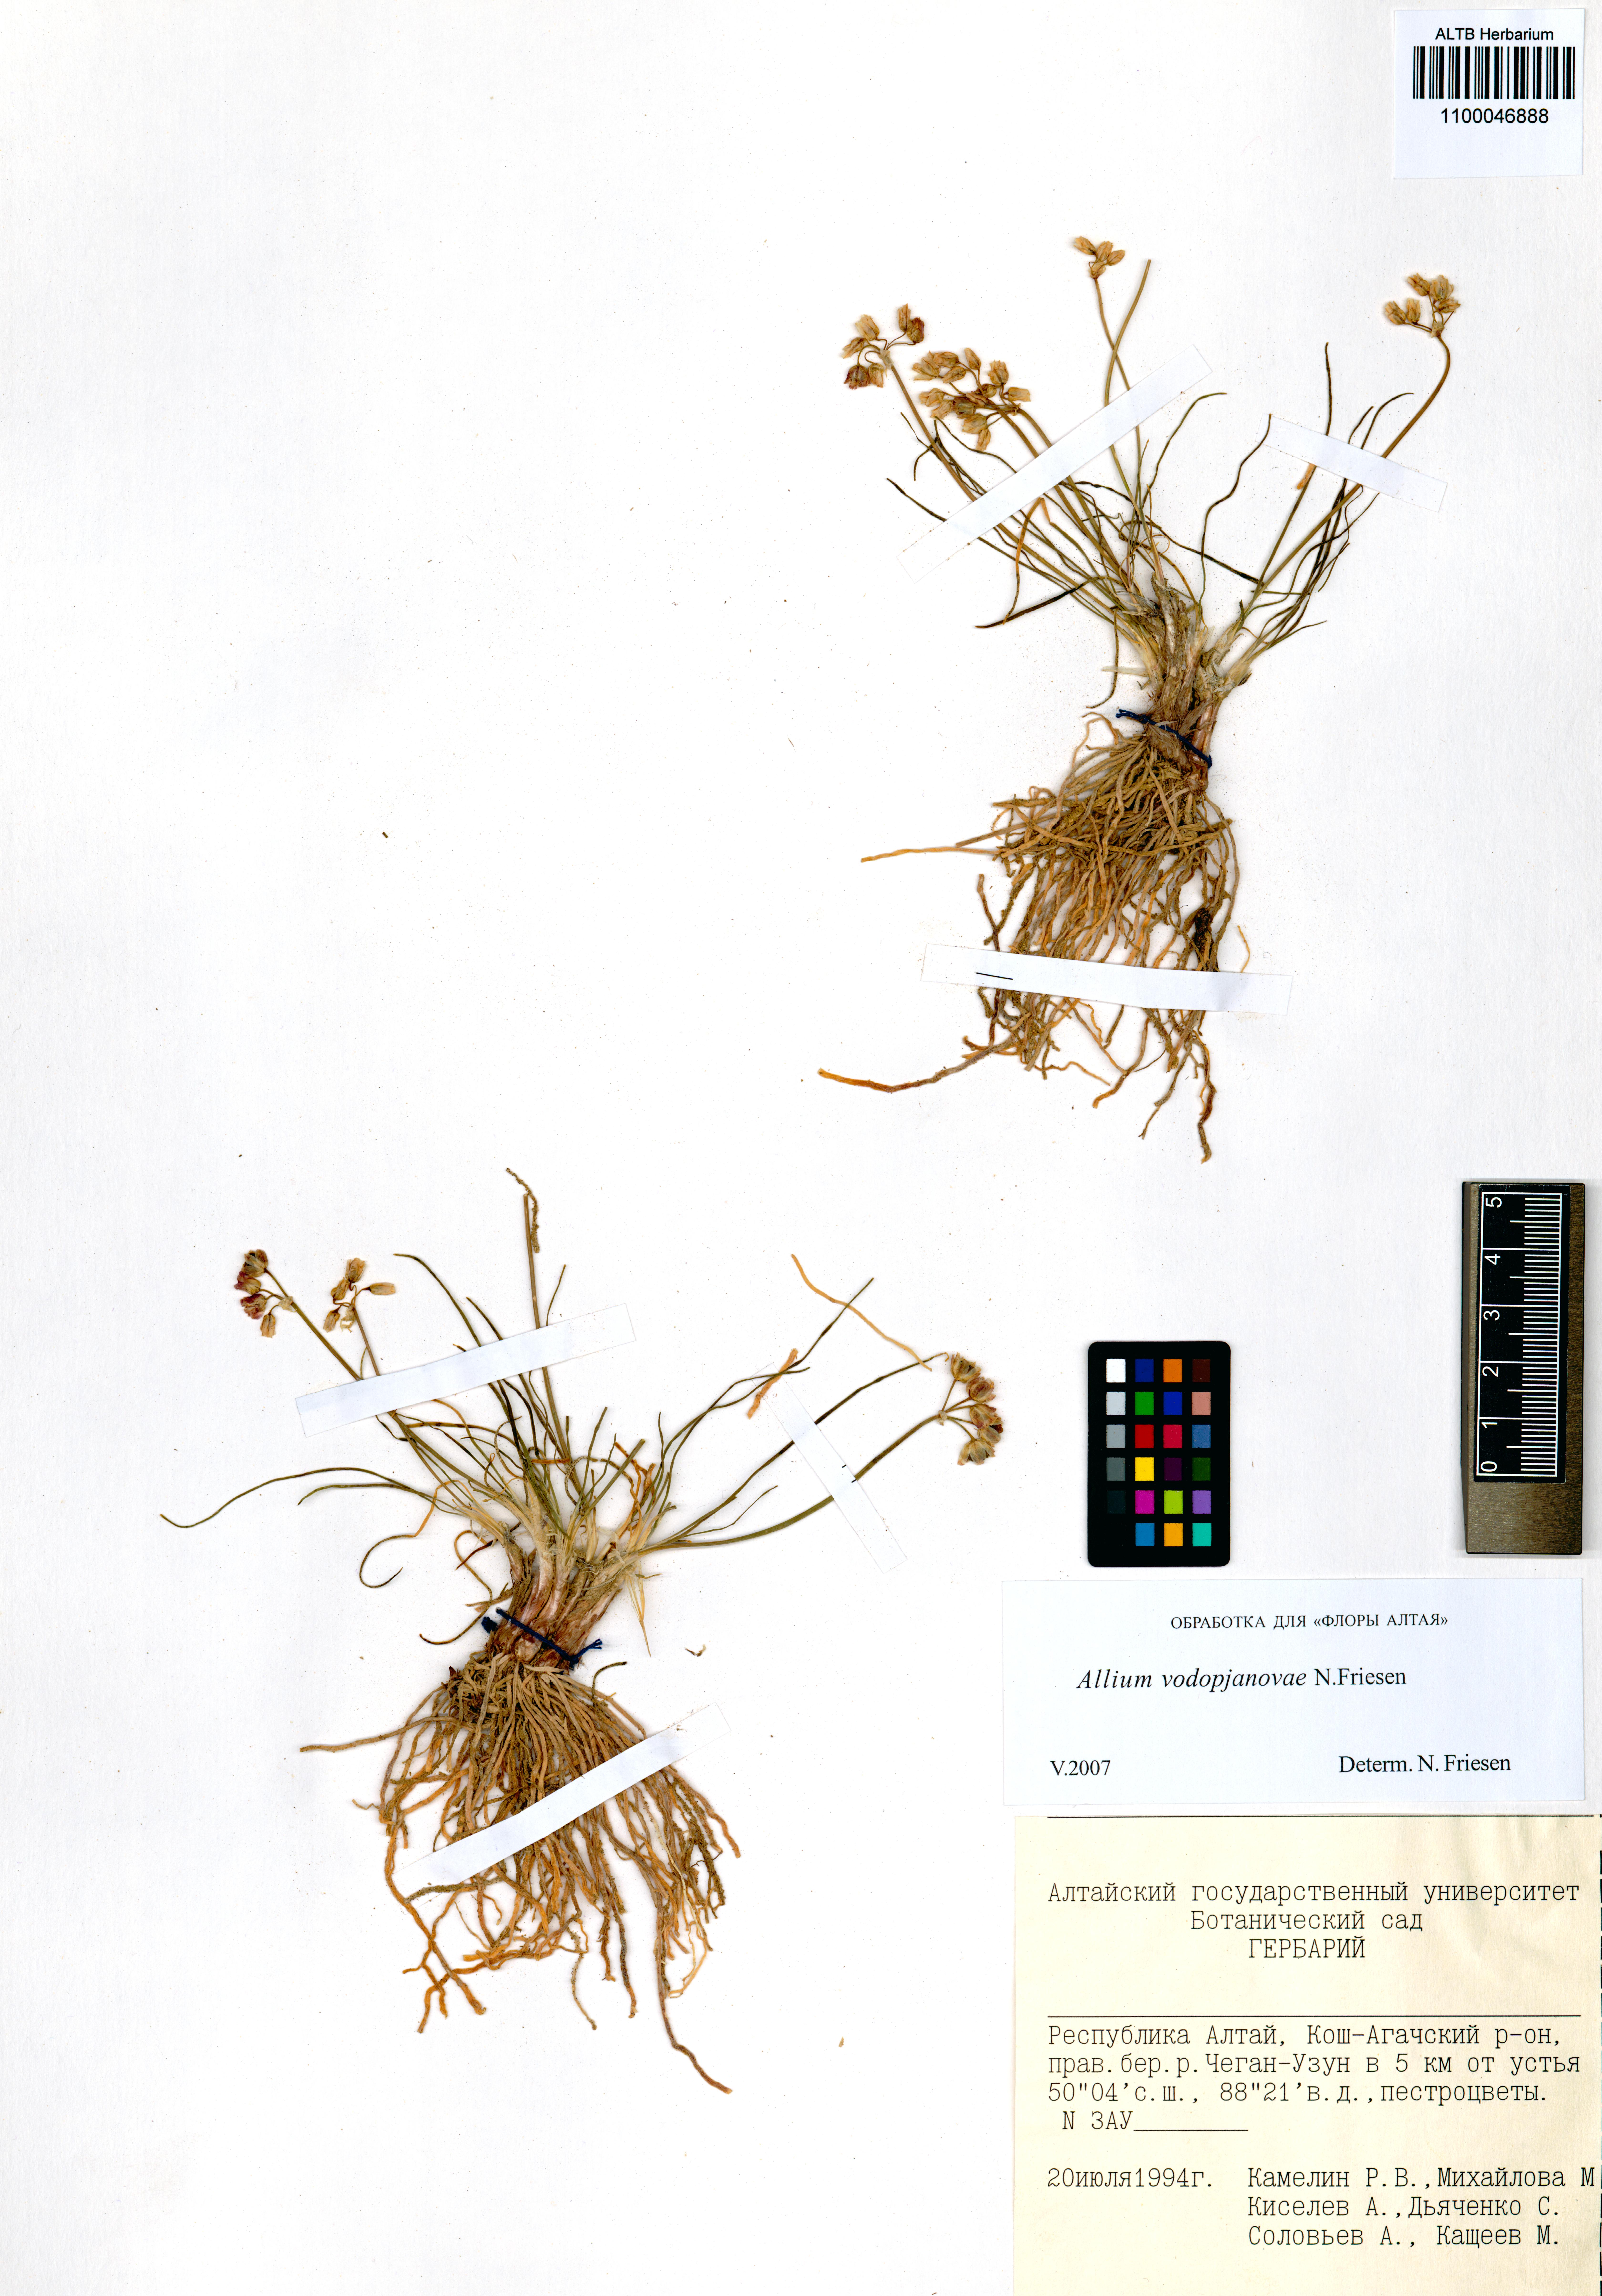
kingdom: Plantae
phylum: Tracheophyta
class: Liliopsida
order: Asparagales
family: Amaryllidaceae
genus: Allium
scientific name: Allium vodopjanovae
